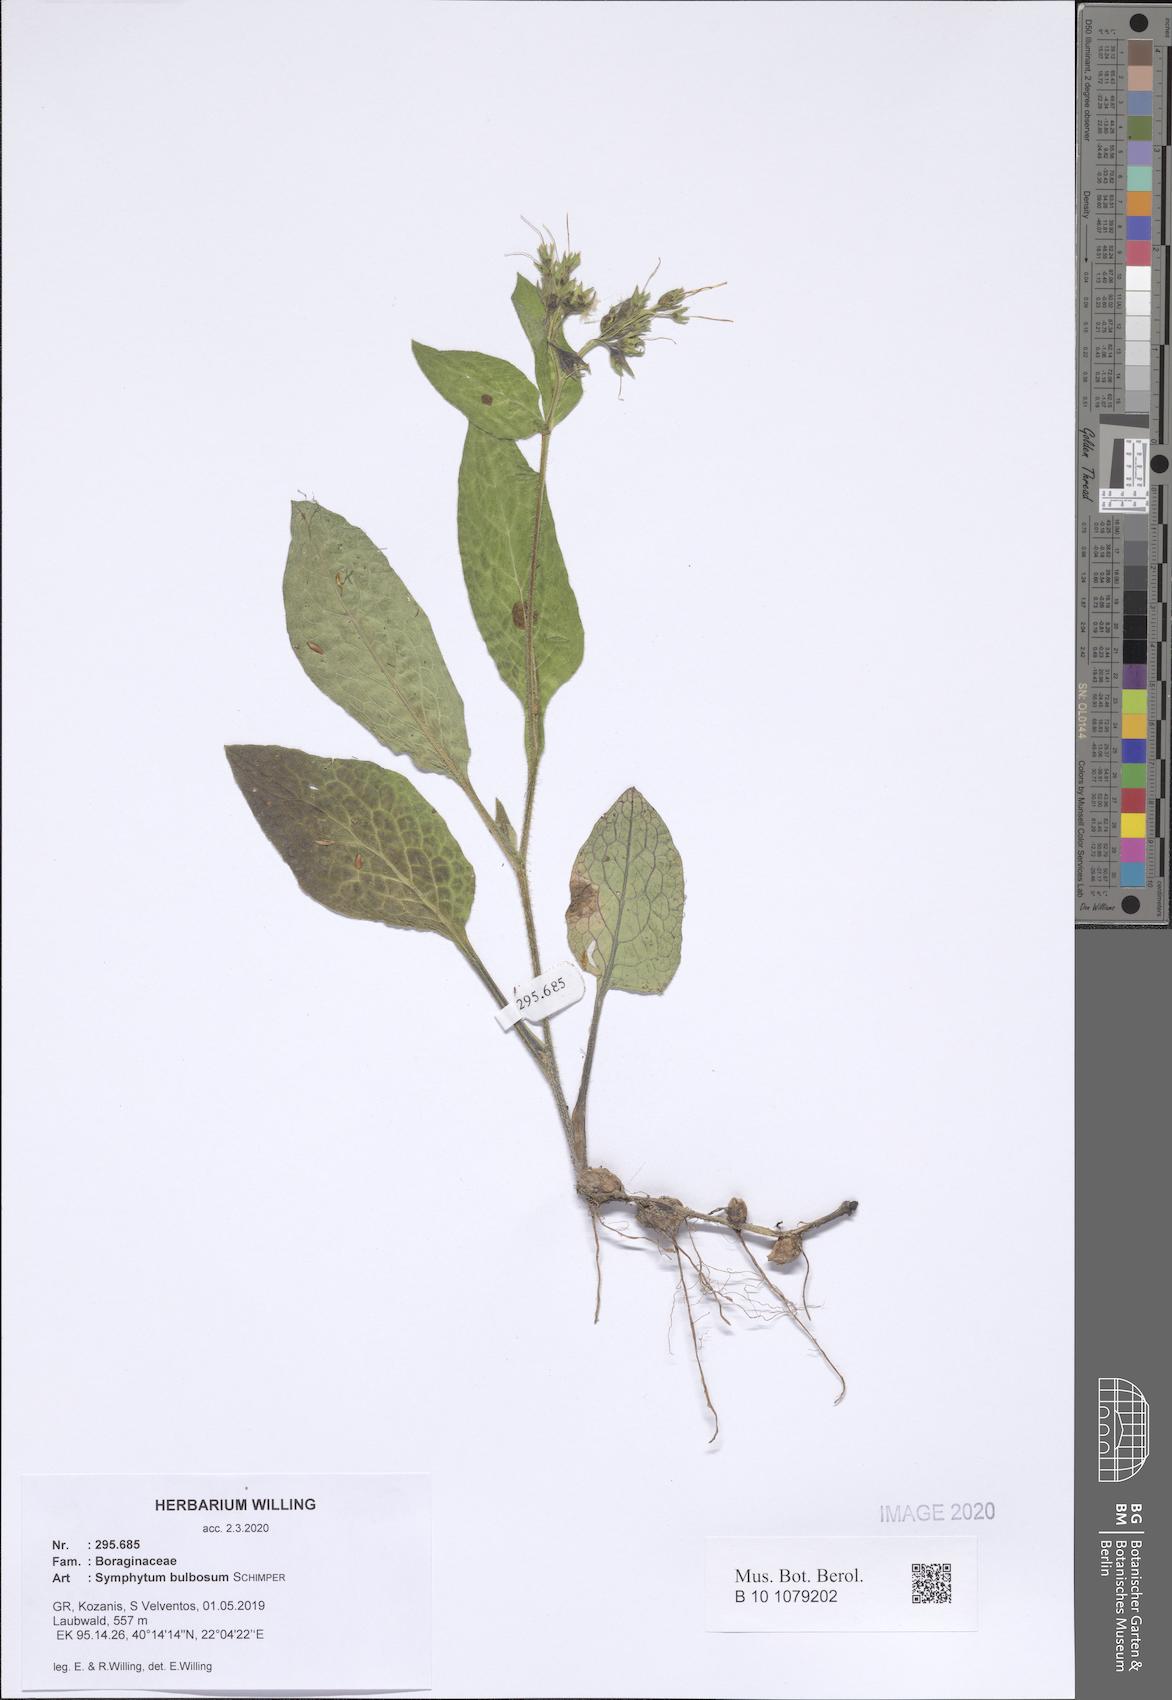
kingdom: Plantae
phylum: Tracheophyta
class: Magnoliopsida
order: Boraginales
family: Boraginaceae
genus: Symphytum
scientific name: Symphytum bulbosum
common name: Bulbous comfrey
